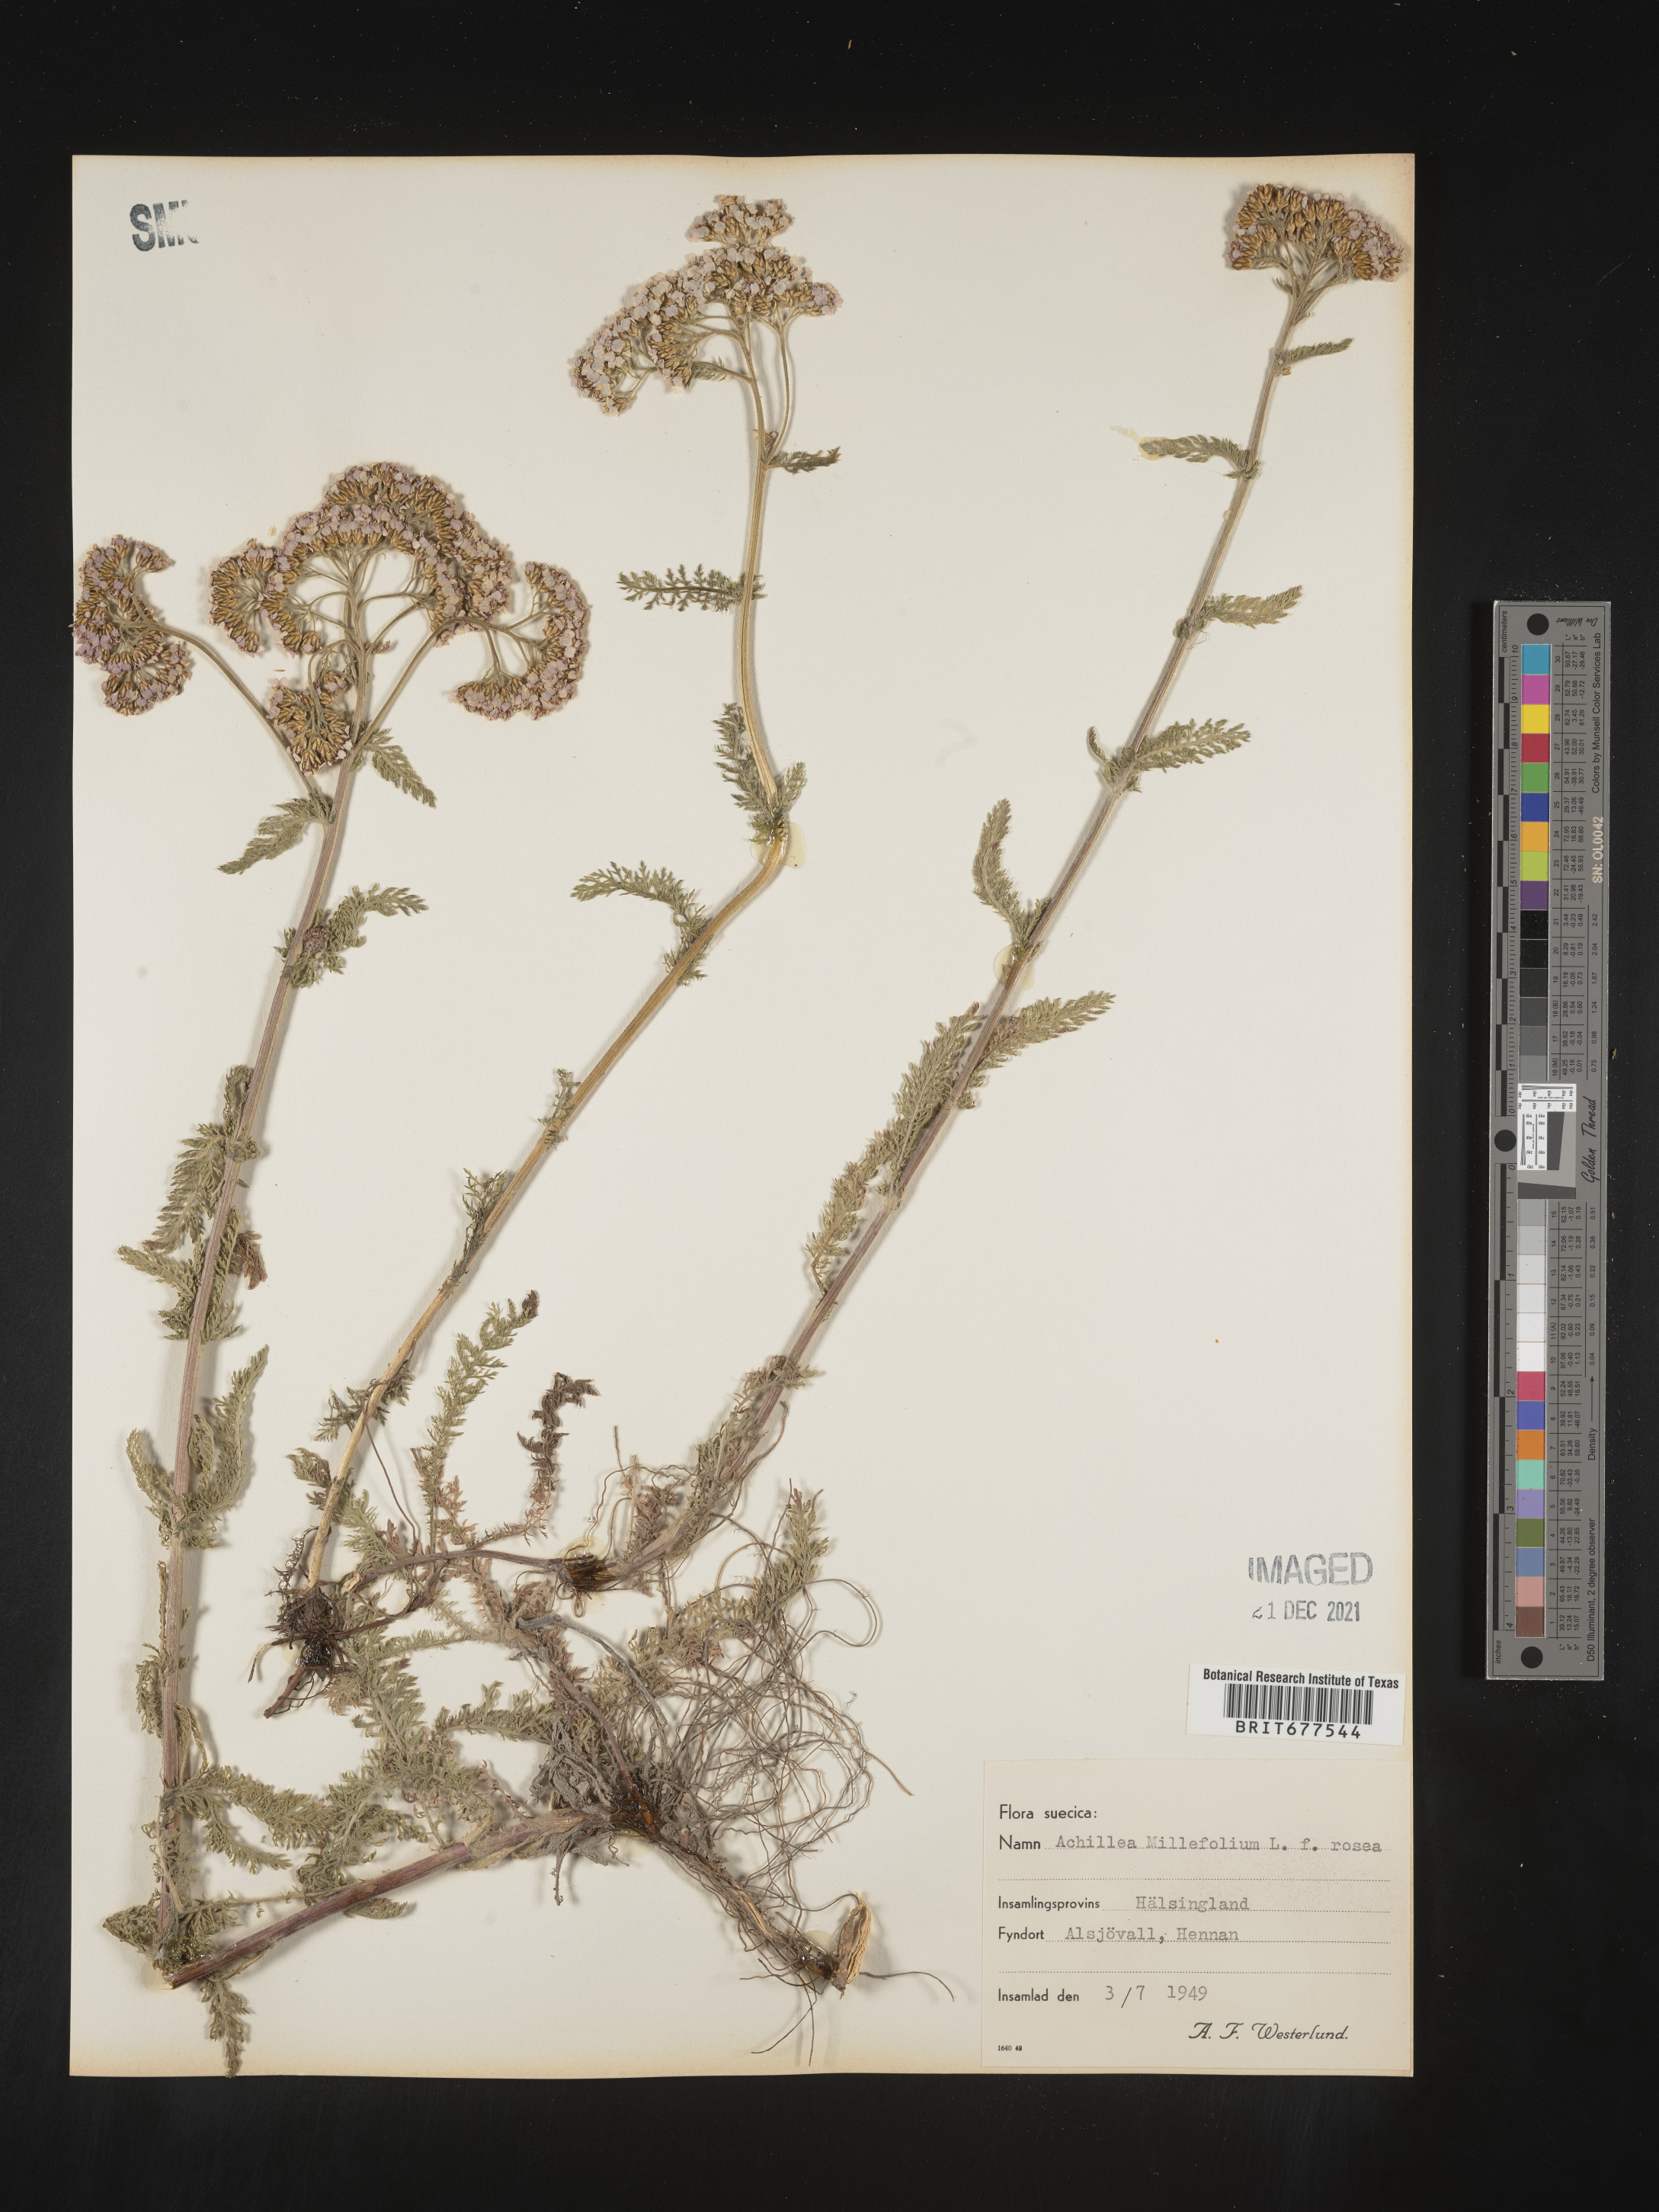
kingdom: Plantae
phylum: Tracheophyta
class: Magnoliopsida
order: Asterales
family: Asteraceae
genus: Achillea
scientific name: Achillea millefolium
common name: Yarrow
